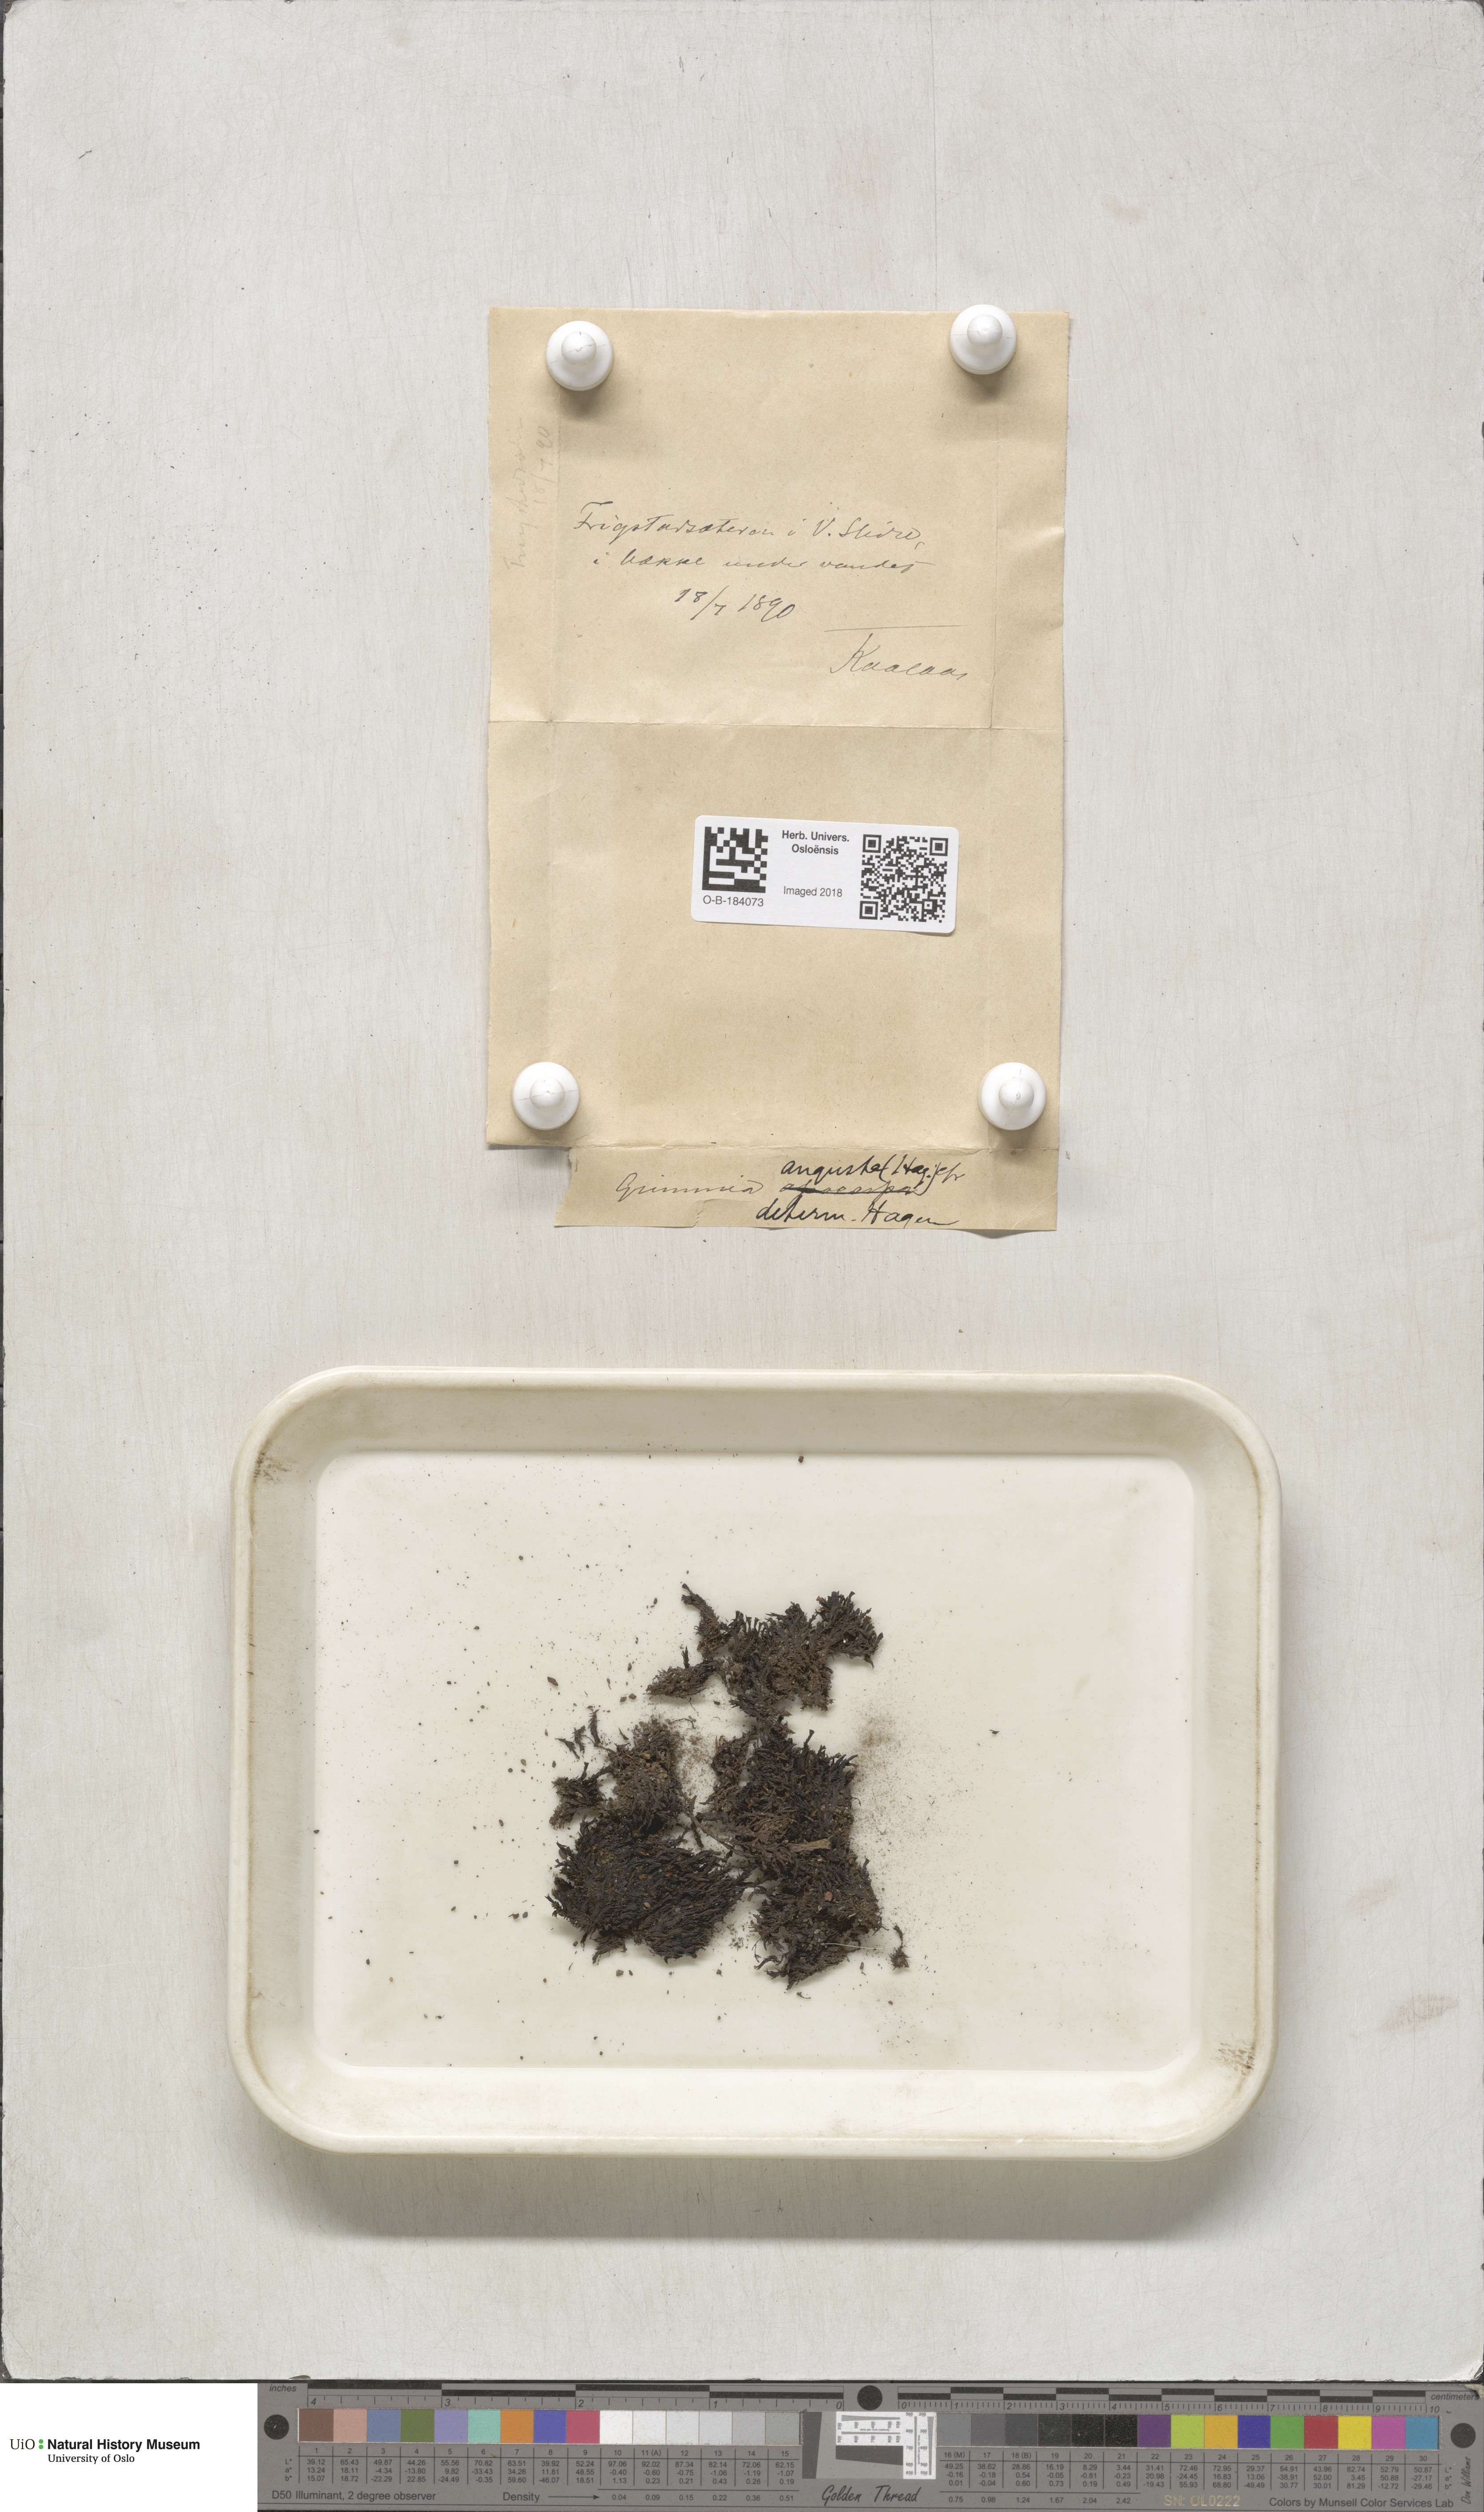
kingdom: Plantae
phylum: Bryophyta
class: Bryopsida
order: Grimmiales
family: Grimmiaceae
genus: Schistidium
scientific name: Schistidium agassizii
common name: Agassiz's bloom moss
